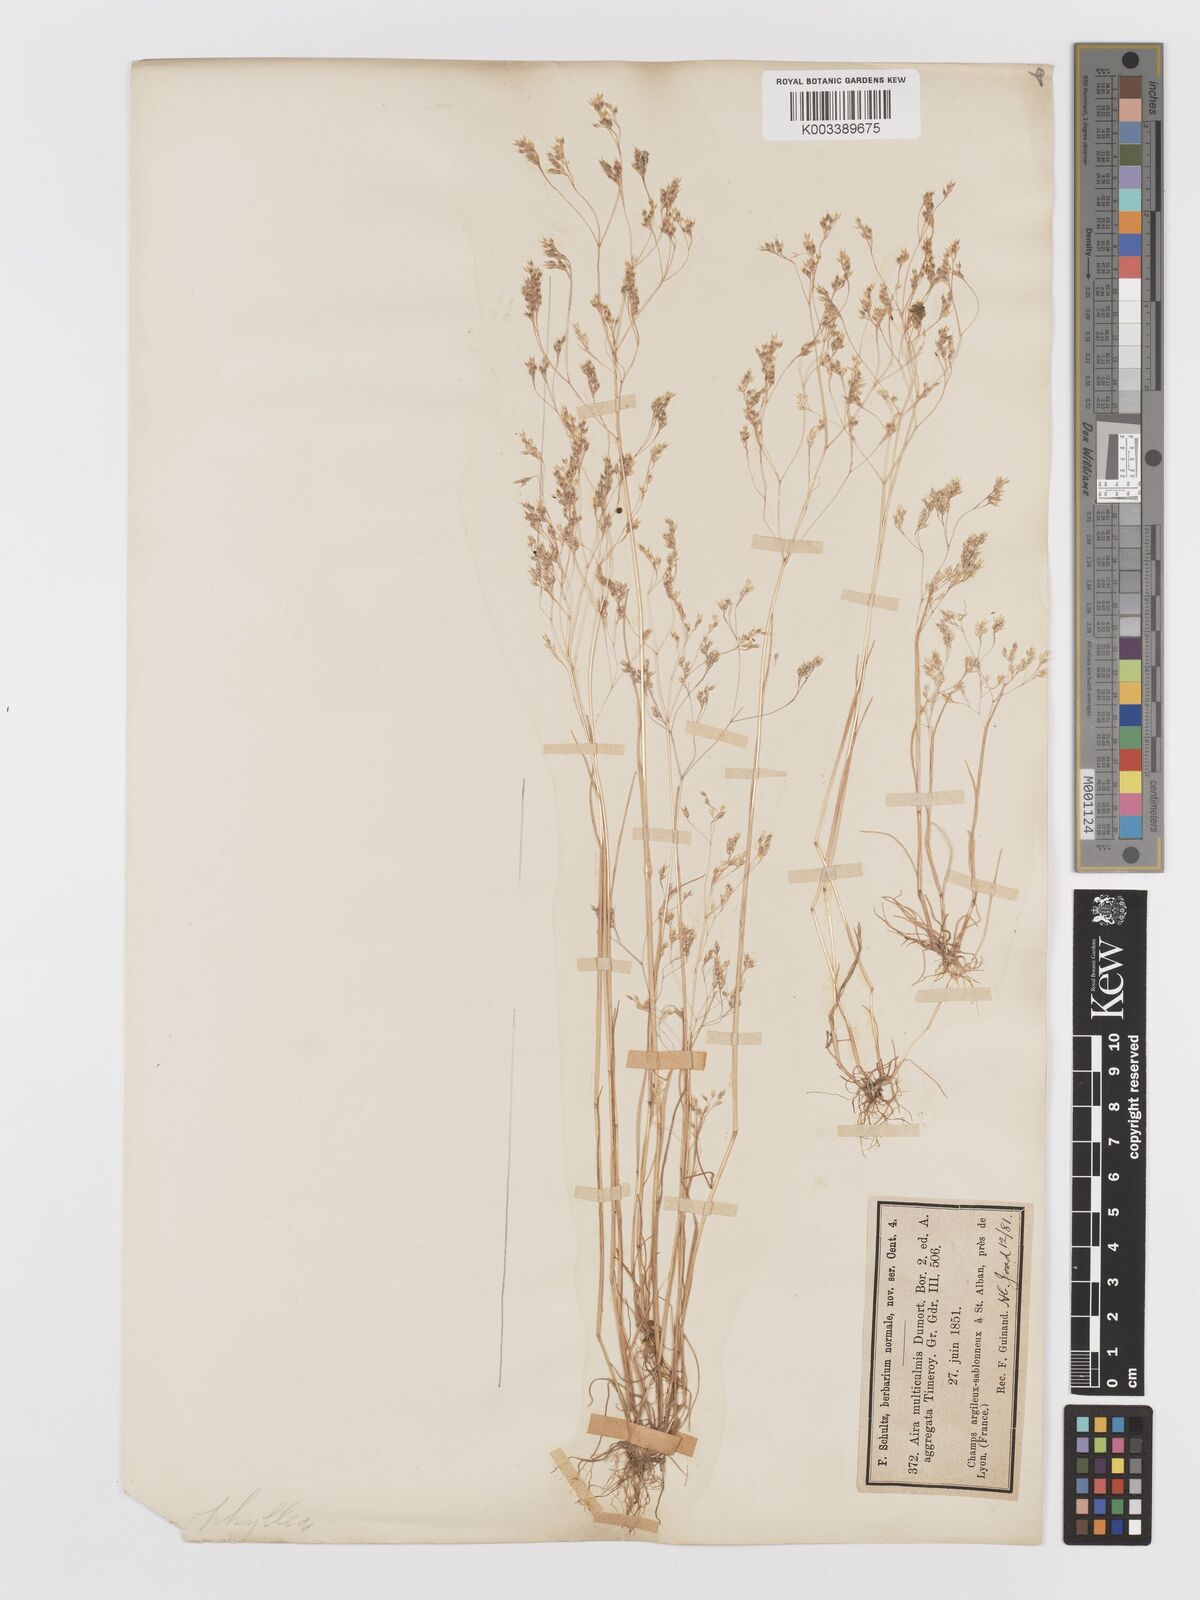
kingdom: Plantae
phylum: Tracheophyta
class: Liliopsida
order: Poales
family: Poaceae
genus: Aira
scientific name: Aira caryophyllea
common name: Silver hairgrass
